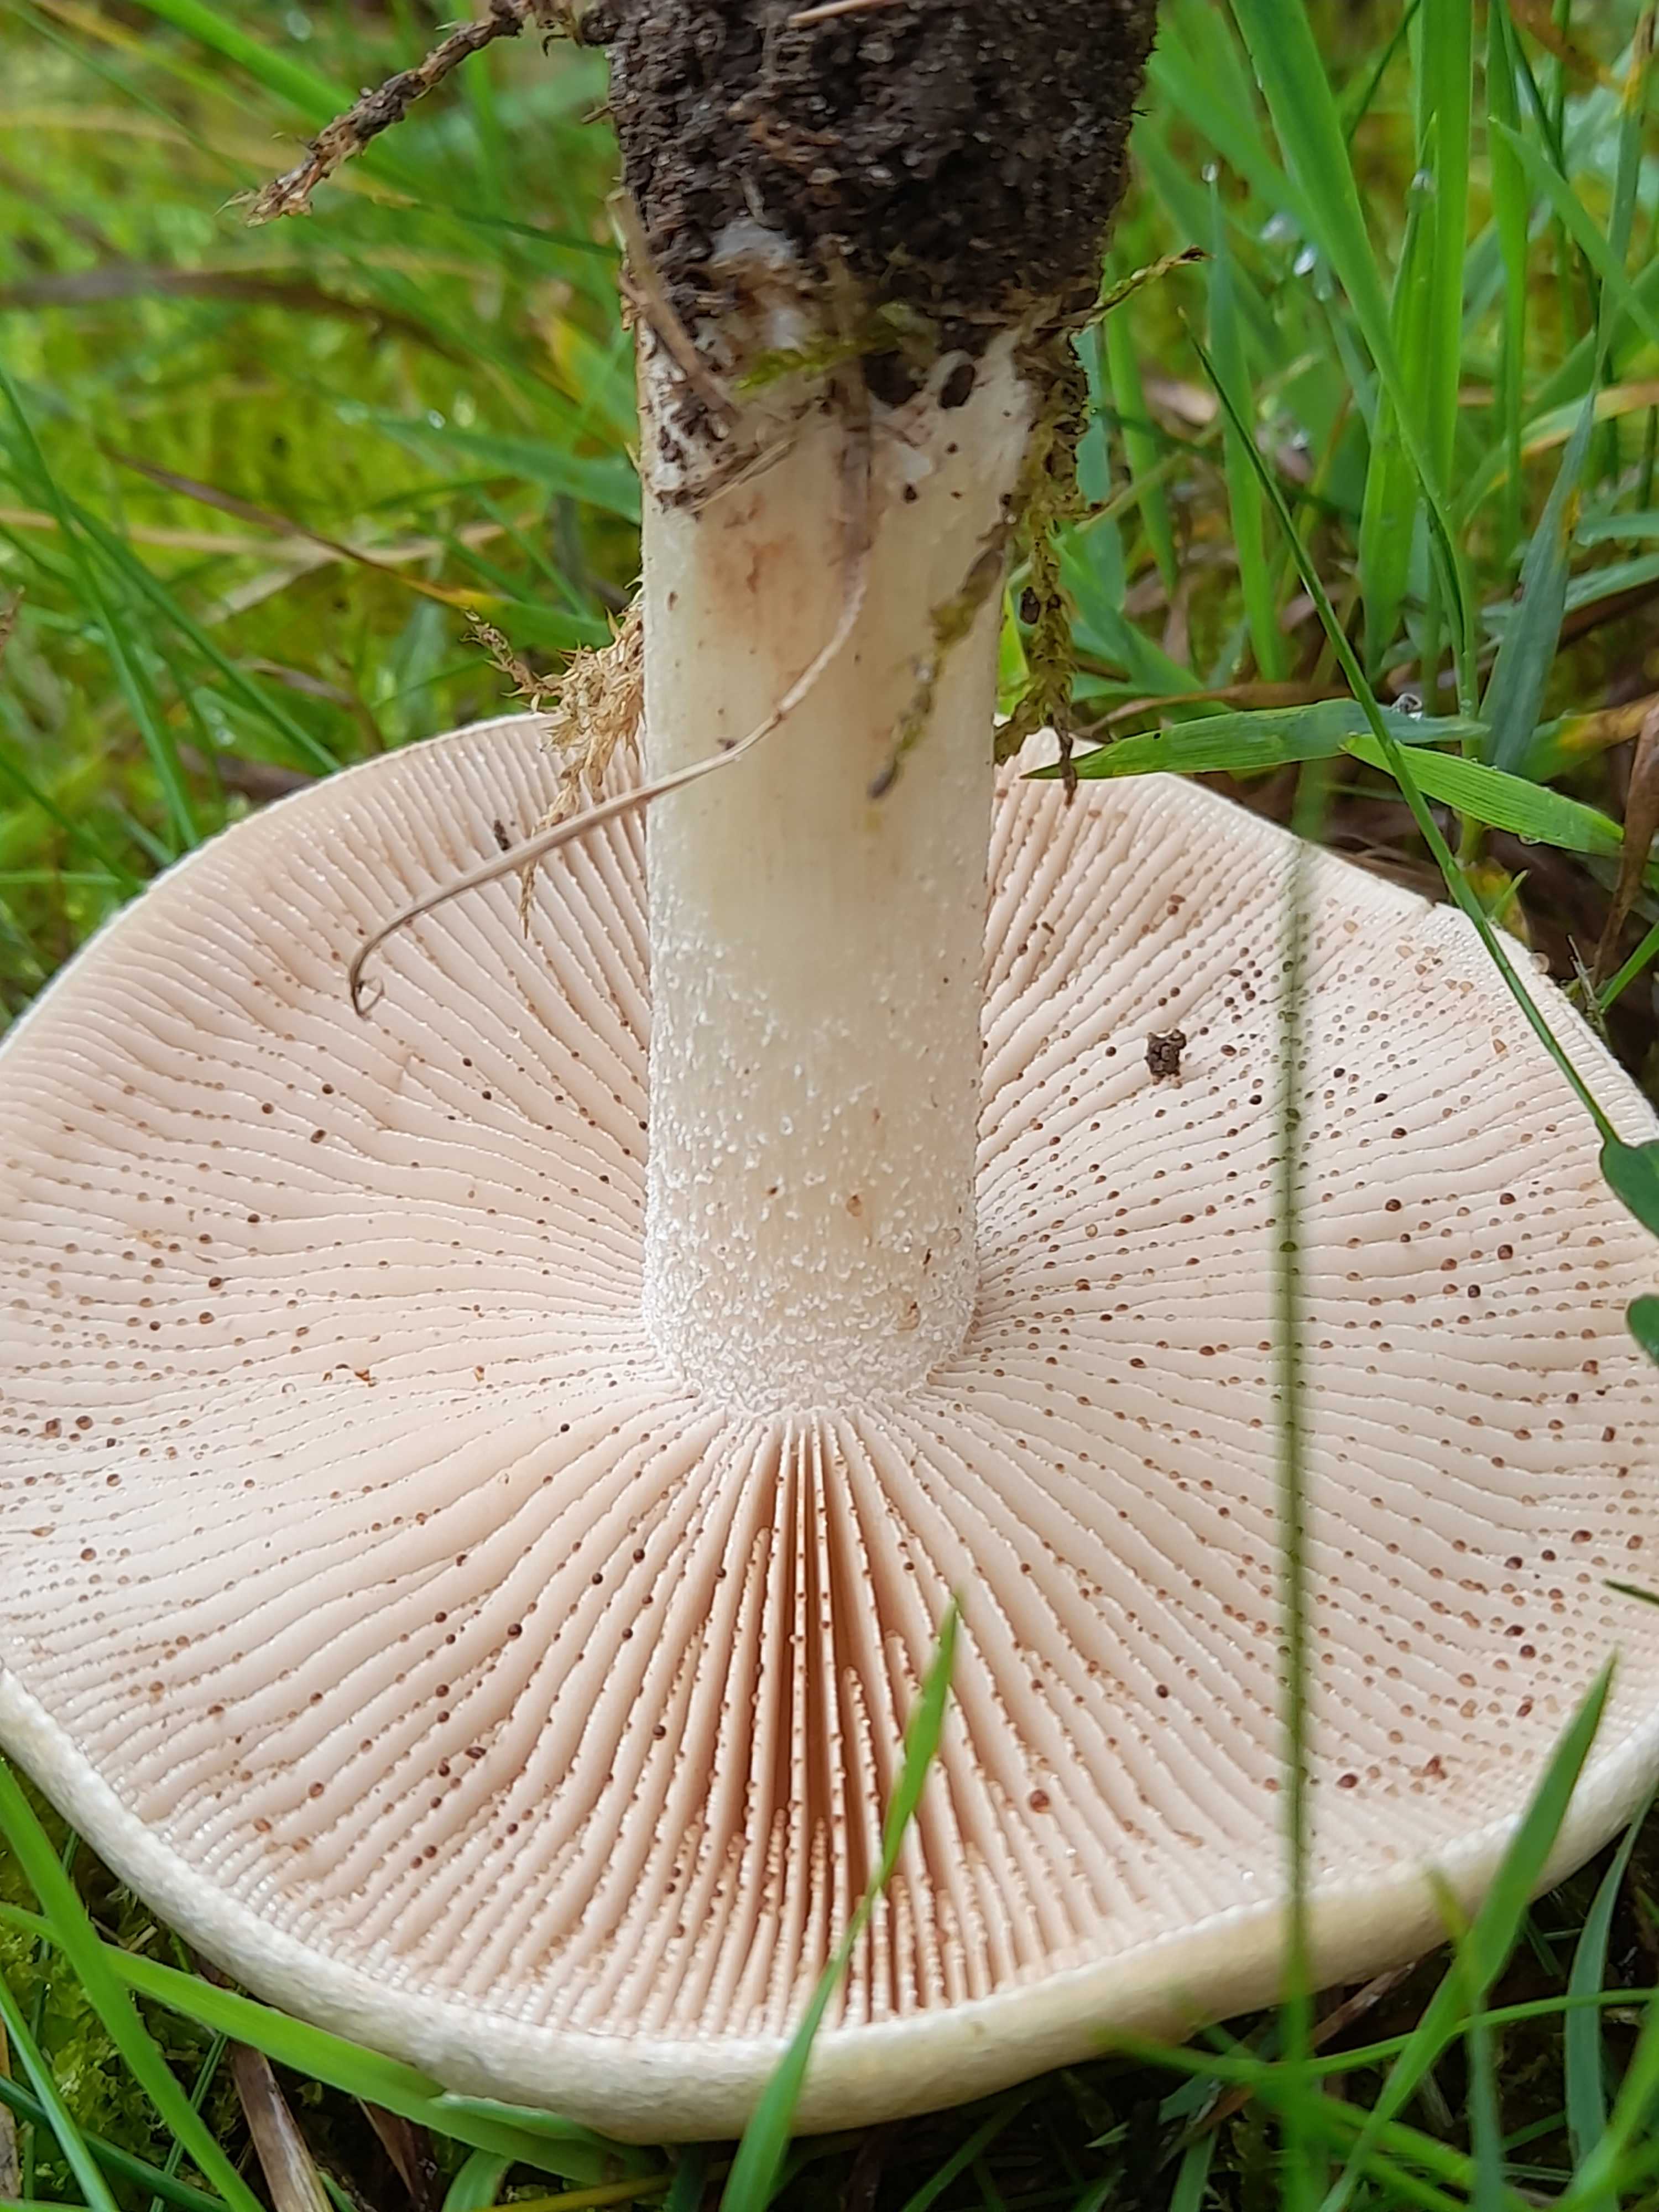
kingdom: Fungi
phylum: Basidiomycota
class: Agaricomycetes
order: Agaricales
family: Hymenogastraceae
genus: Hebeloma
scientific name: Hebeloma
